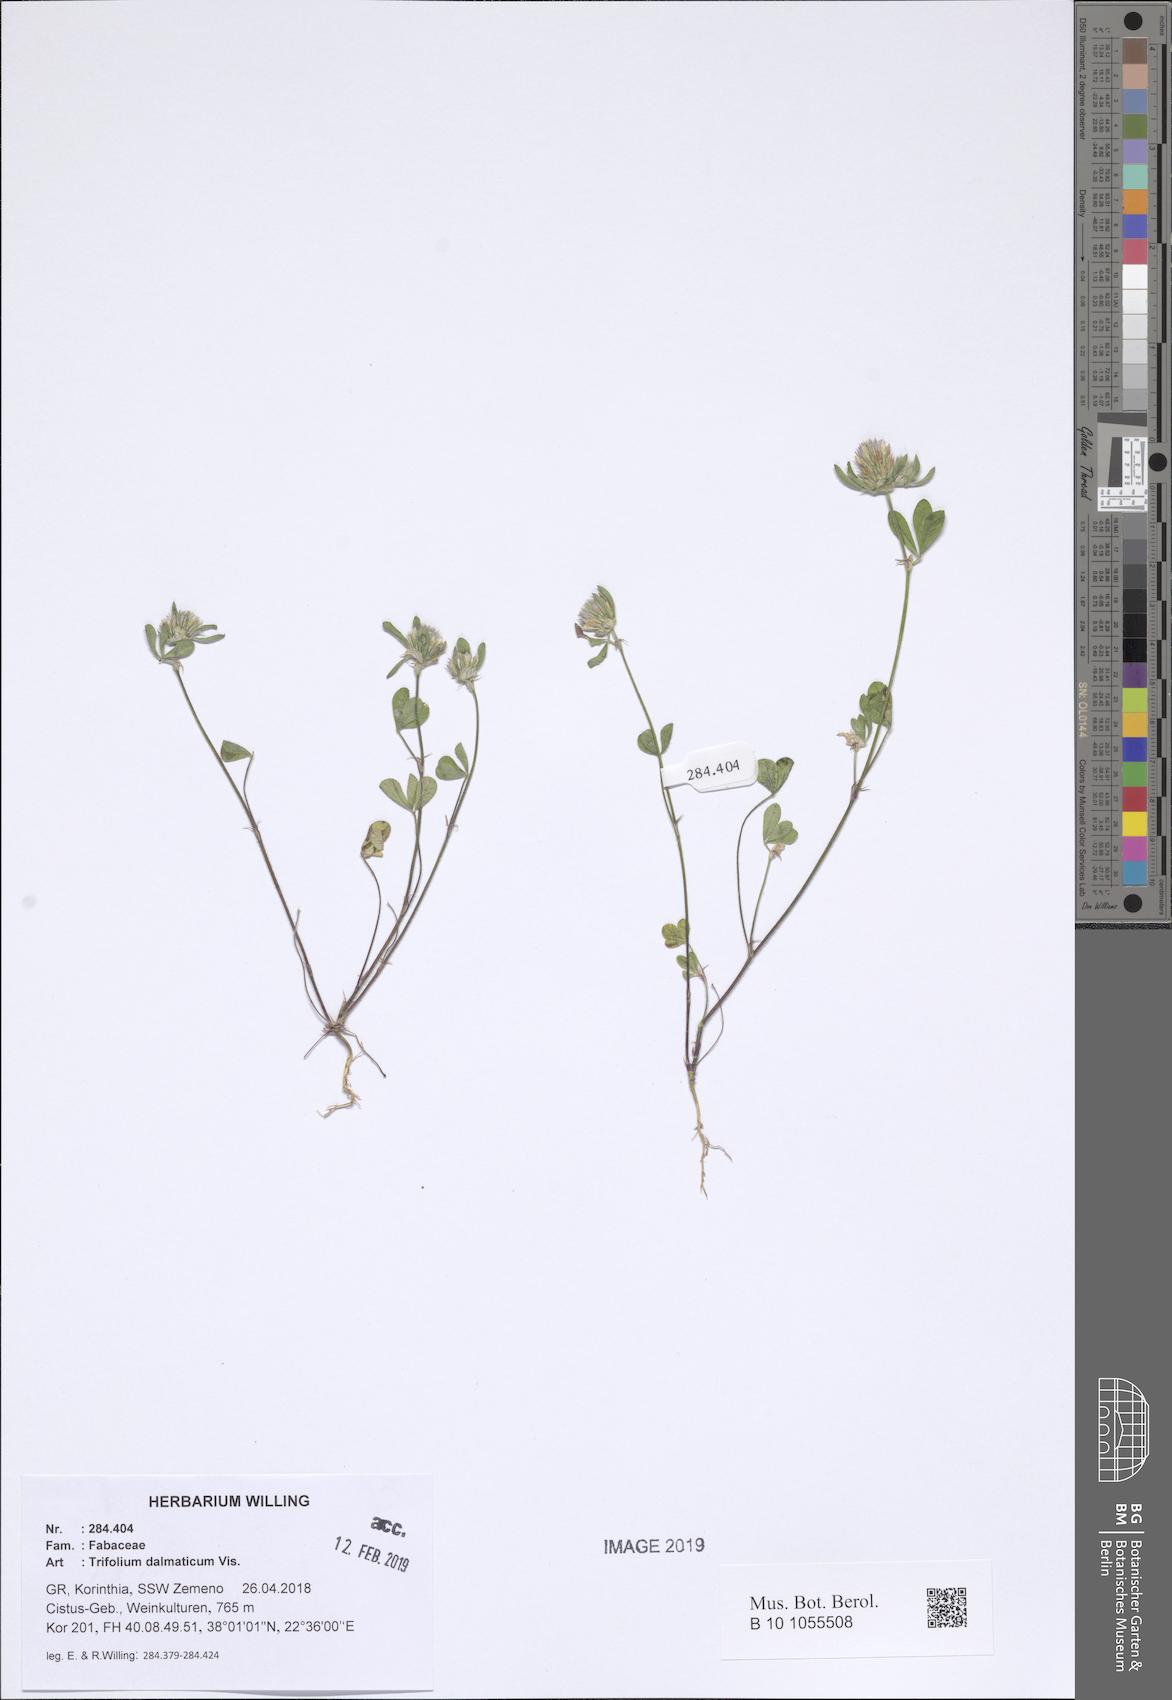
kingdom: Plantae
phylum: Tracheophyta
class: Magnoliopsida
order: Fabales
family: Fabaceae
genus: Trifolium
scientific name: Trifolium dalmaticum
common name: Dalmatian clover
